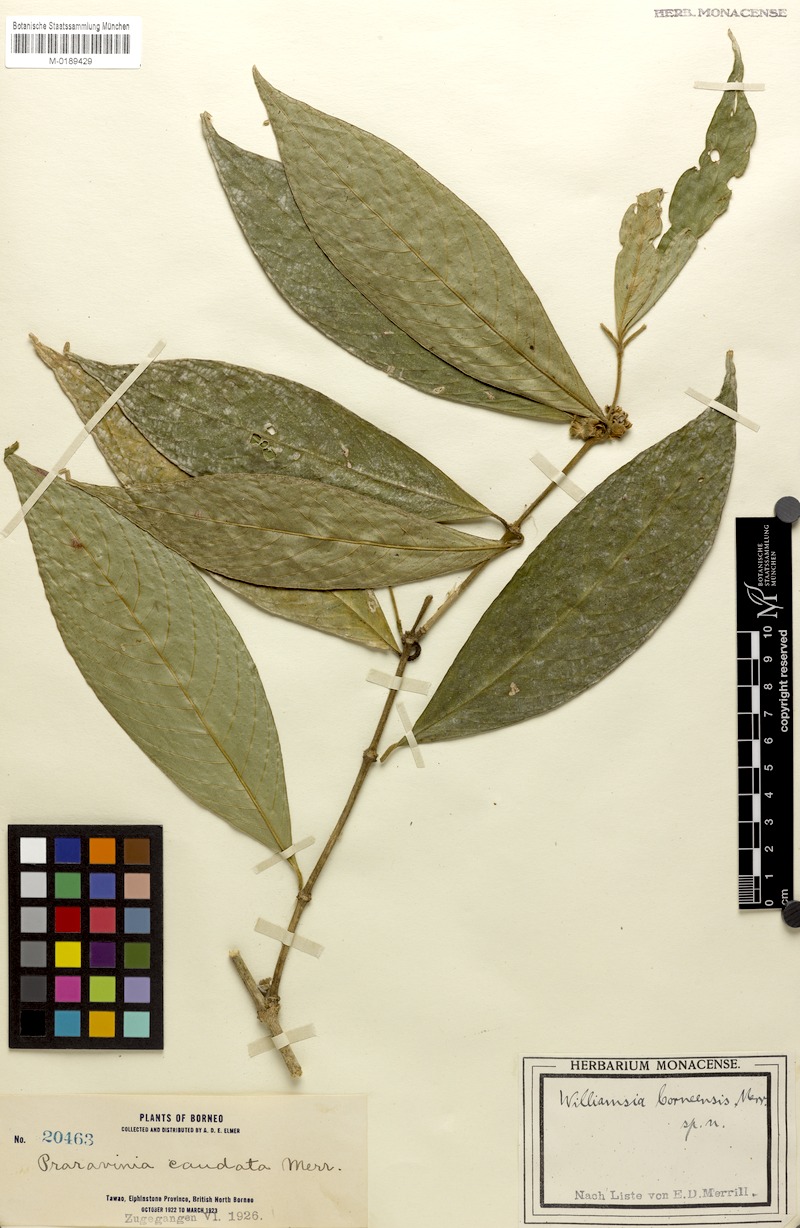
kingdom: Plantae
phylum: Tracheophyta
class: Magnoliopsida
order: Gentianales
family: Rubiaceae
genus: Praravinia
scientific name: Praravinia borneensis
